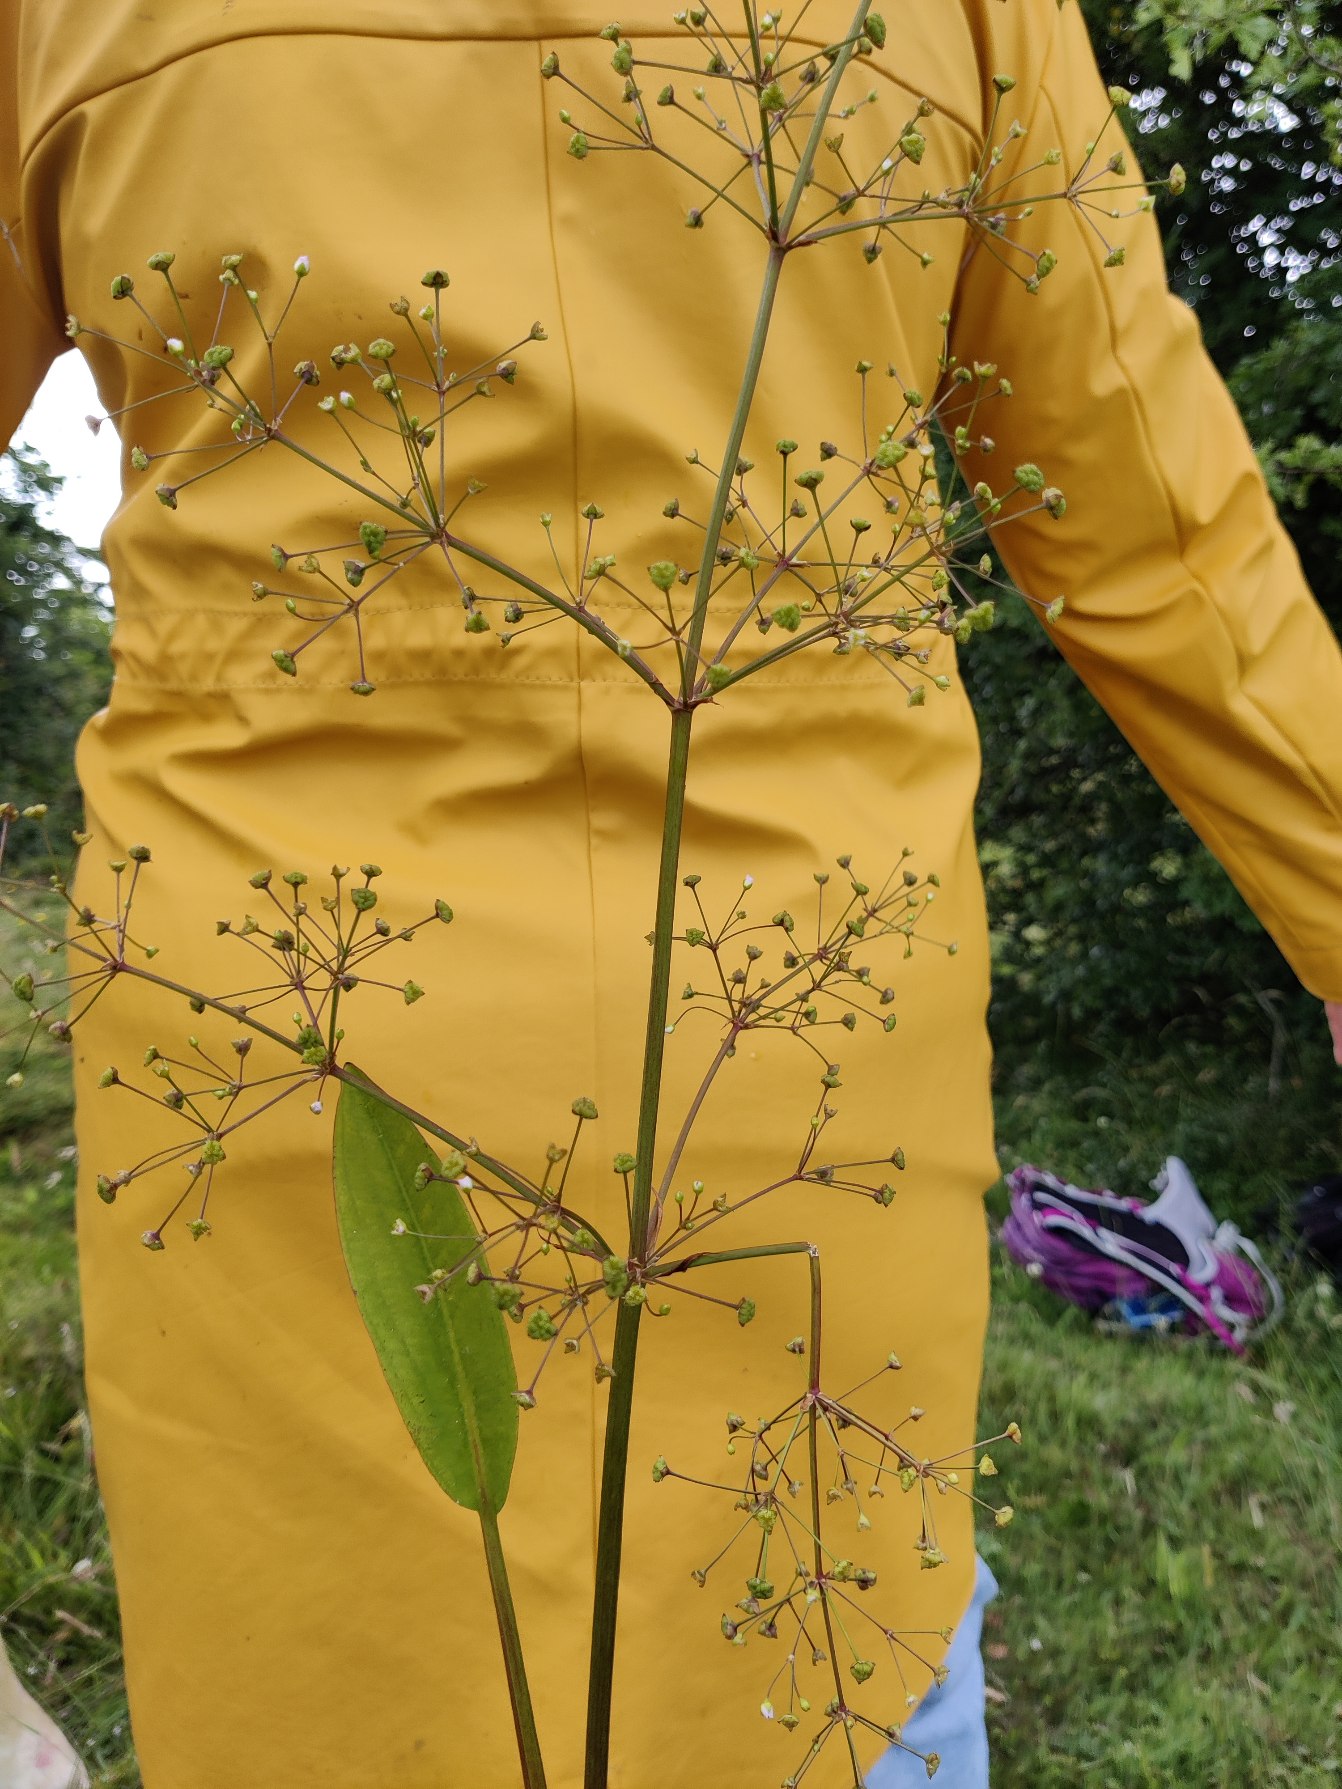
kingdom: Plantae
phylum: Tracheophyta
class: Liliopsida
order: Alismatales
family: Alismataceae
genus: Alisma
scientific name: Alisma plantago-aquatica
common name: Vejbred-skeblad
